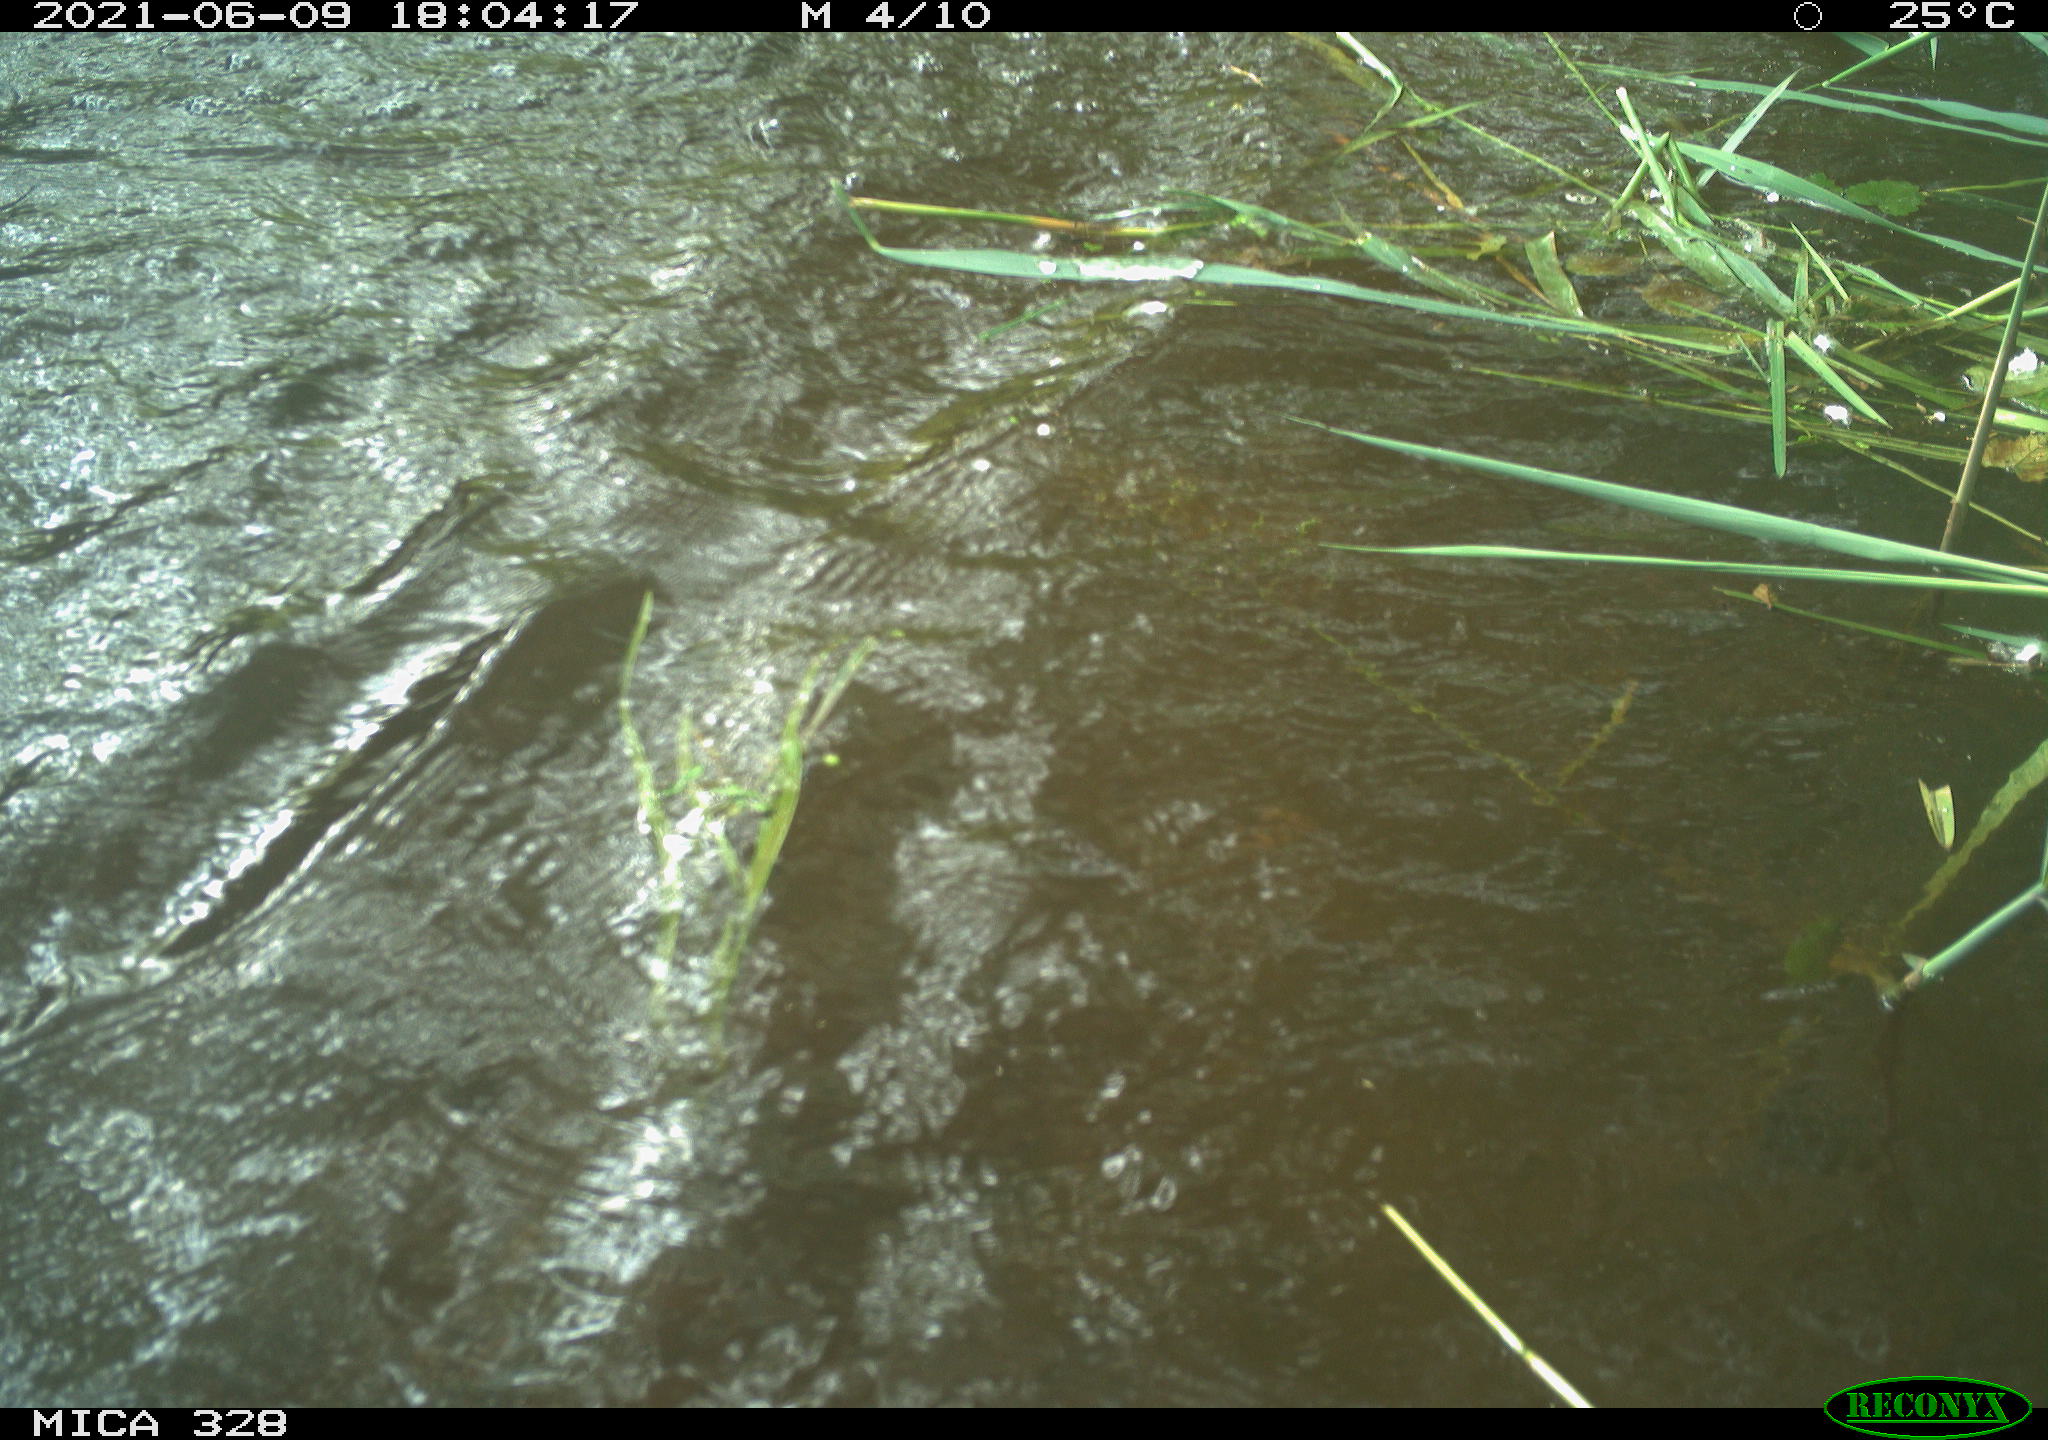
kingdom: Animalia
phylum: Chordata
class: Aves
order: Anseriformes
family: Anatidae
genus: Aix
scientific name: Aix galericulata
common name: Mandarin duck
